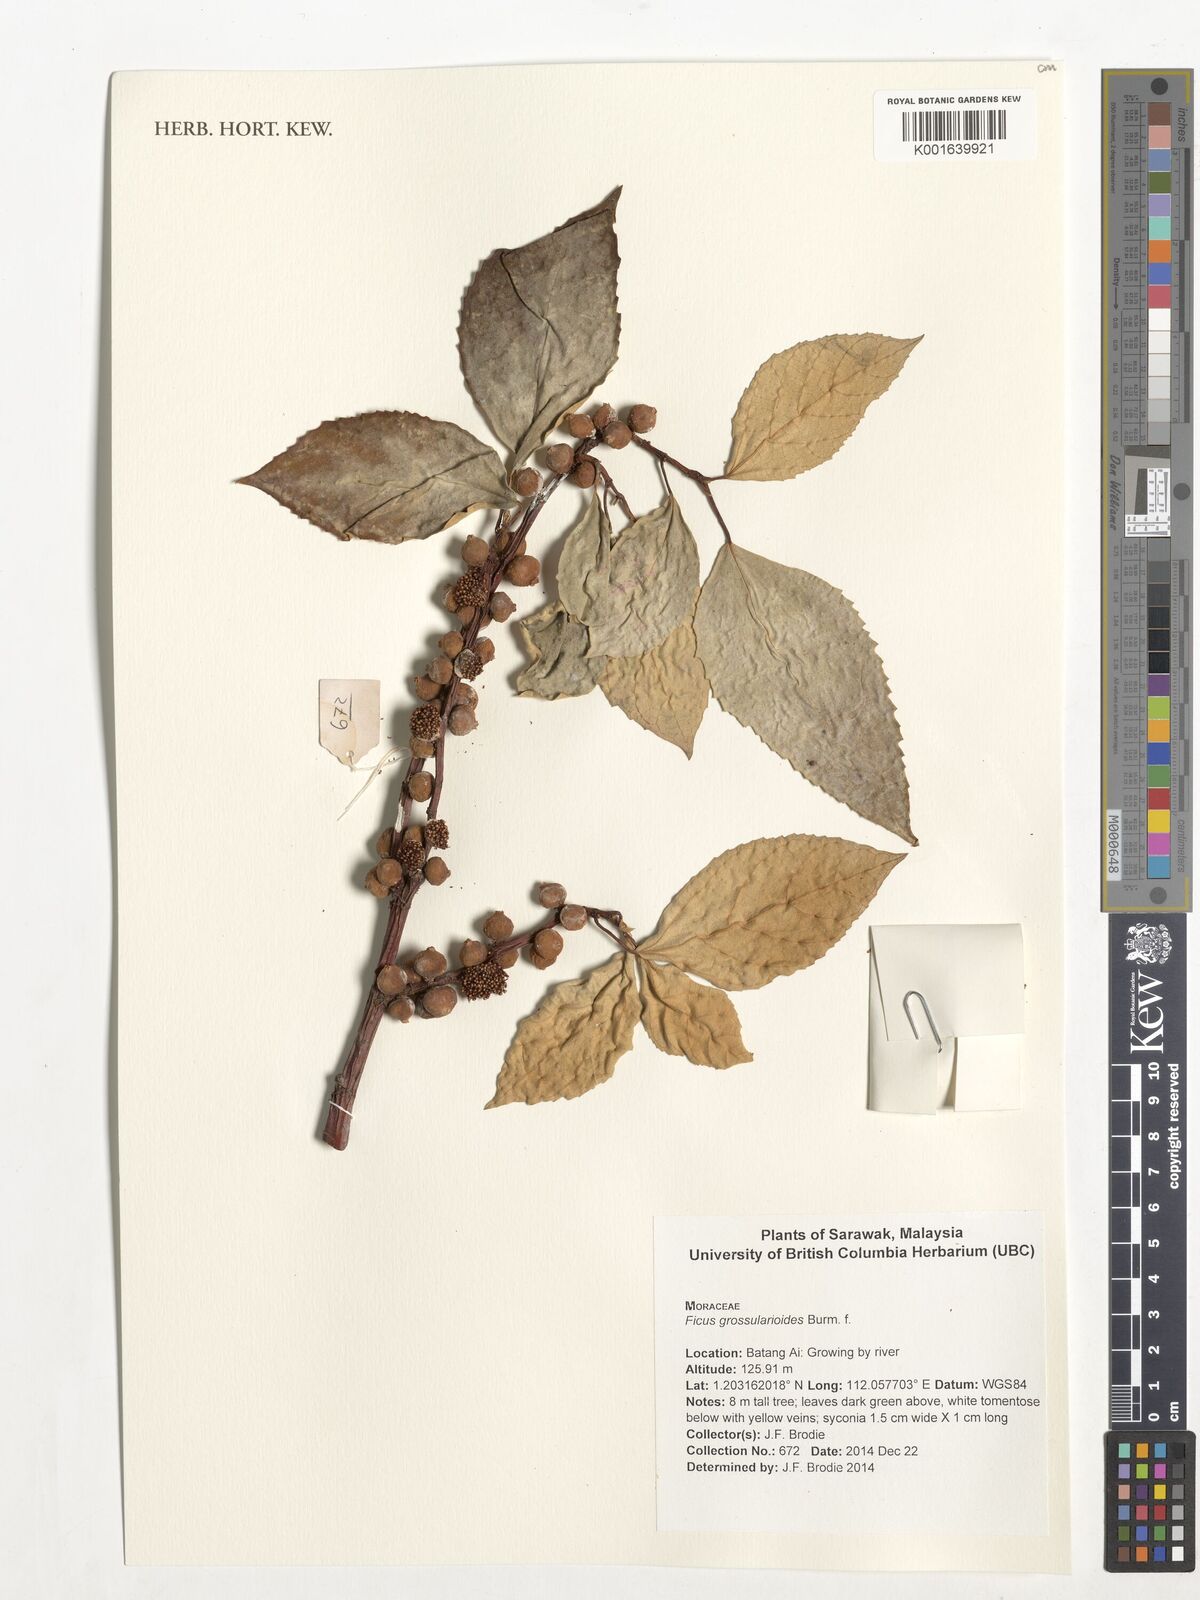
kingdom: Plantae
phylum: Tracheophyta
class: Magnoliopsida
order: Rosales
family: Moraceae
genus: Ficus
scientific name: Ficus grossularioides
